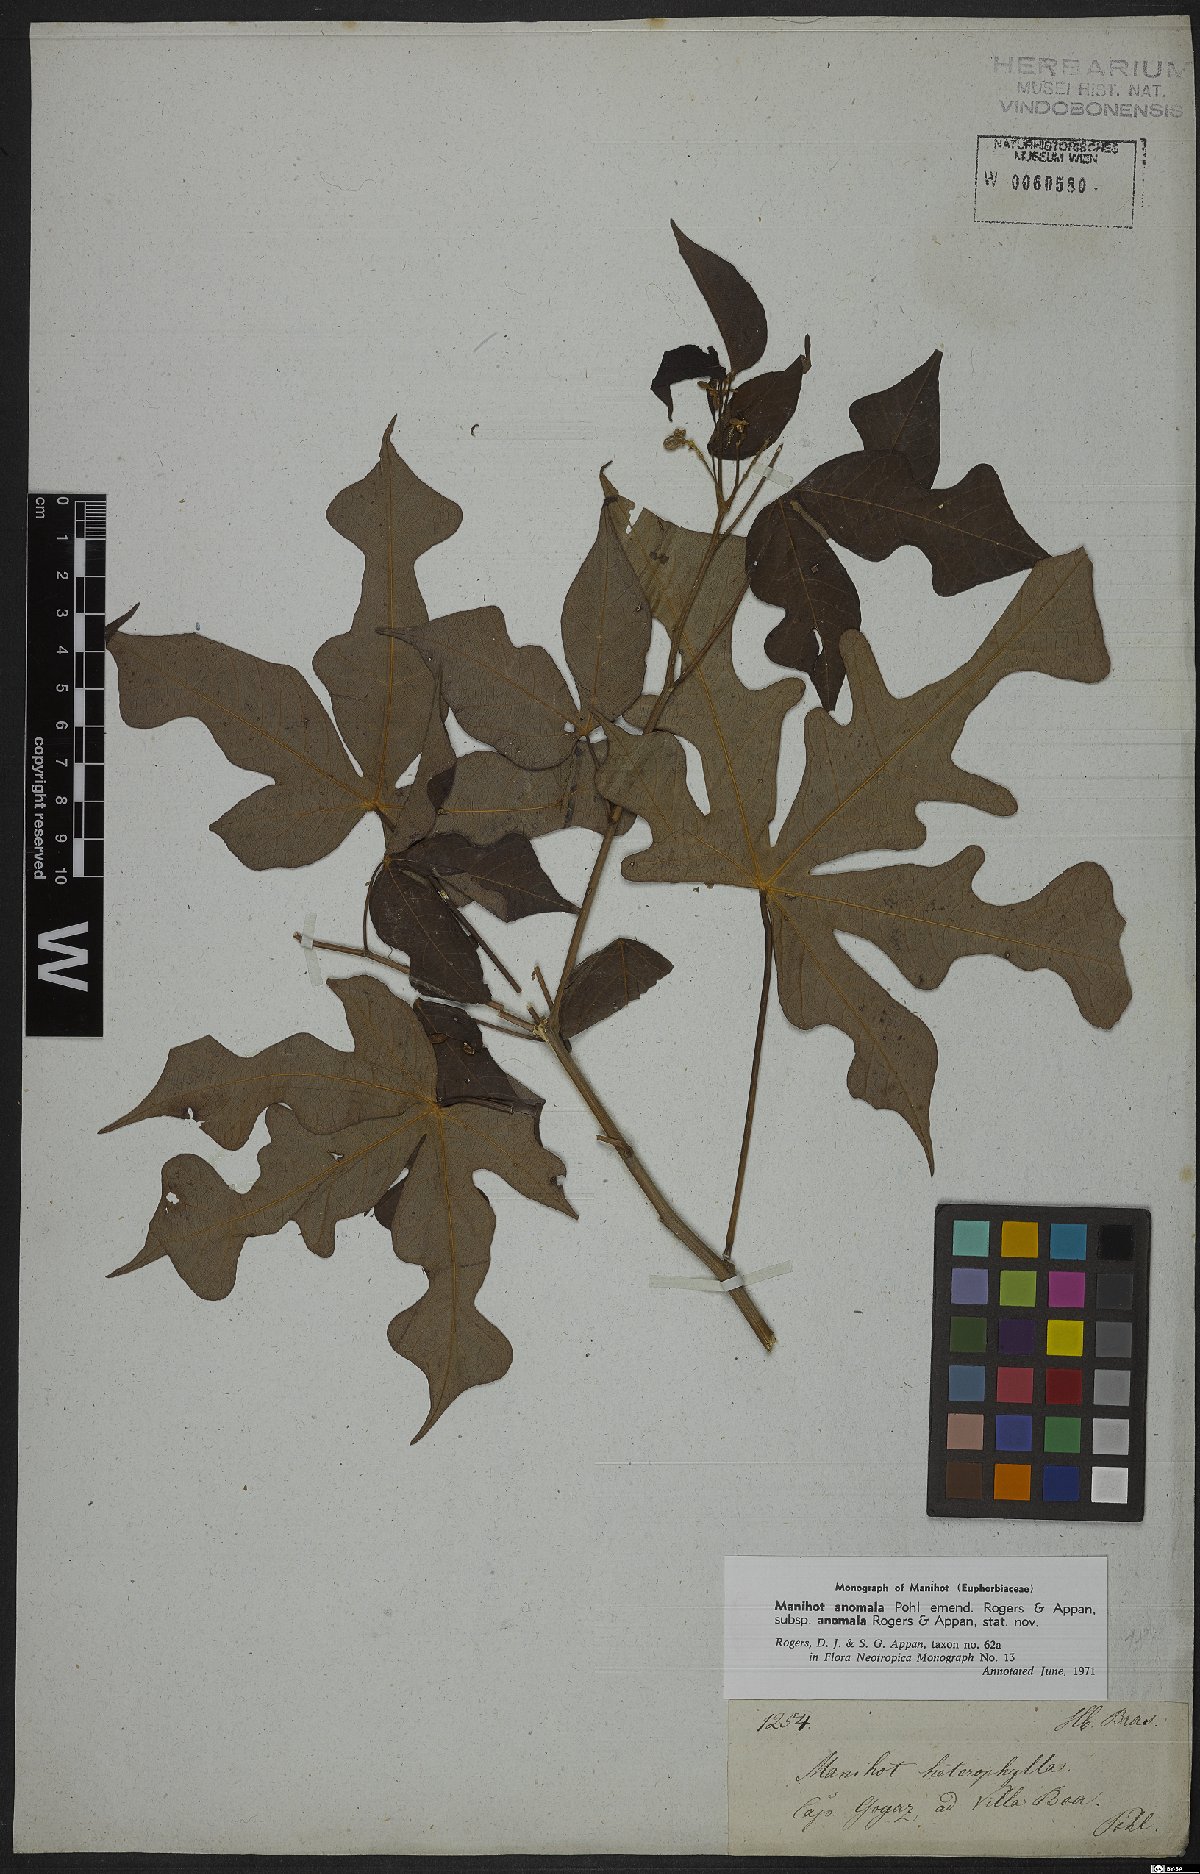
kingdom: Plantae
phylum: Tracheophyta
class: Magnoliopsida
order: Malpighiales
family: Euphorbiaceae
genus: Manihot
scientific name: Manihot anomala
